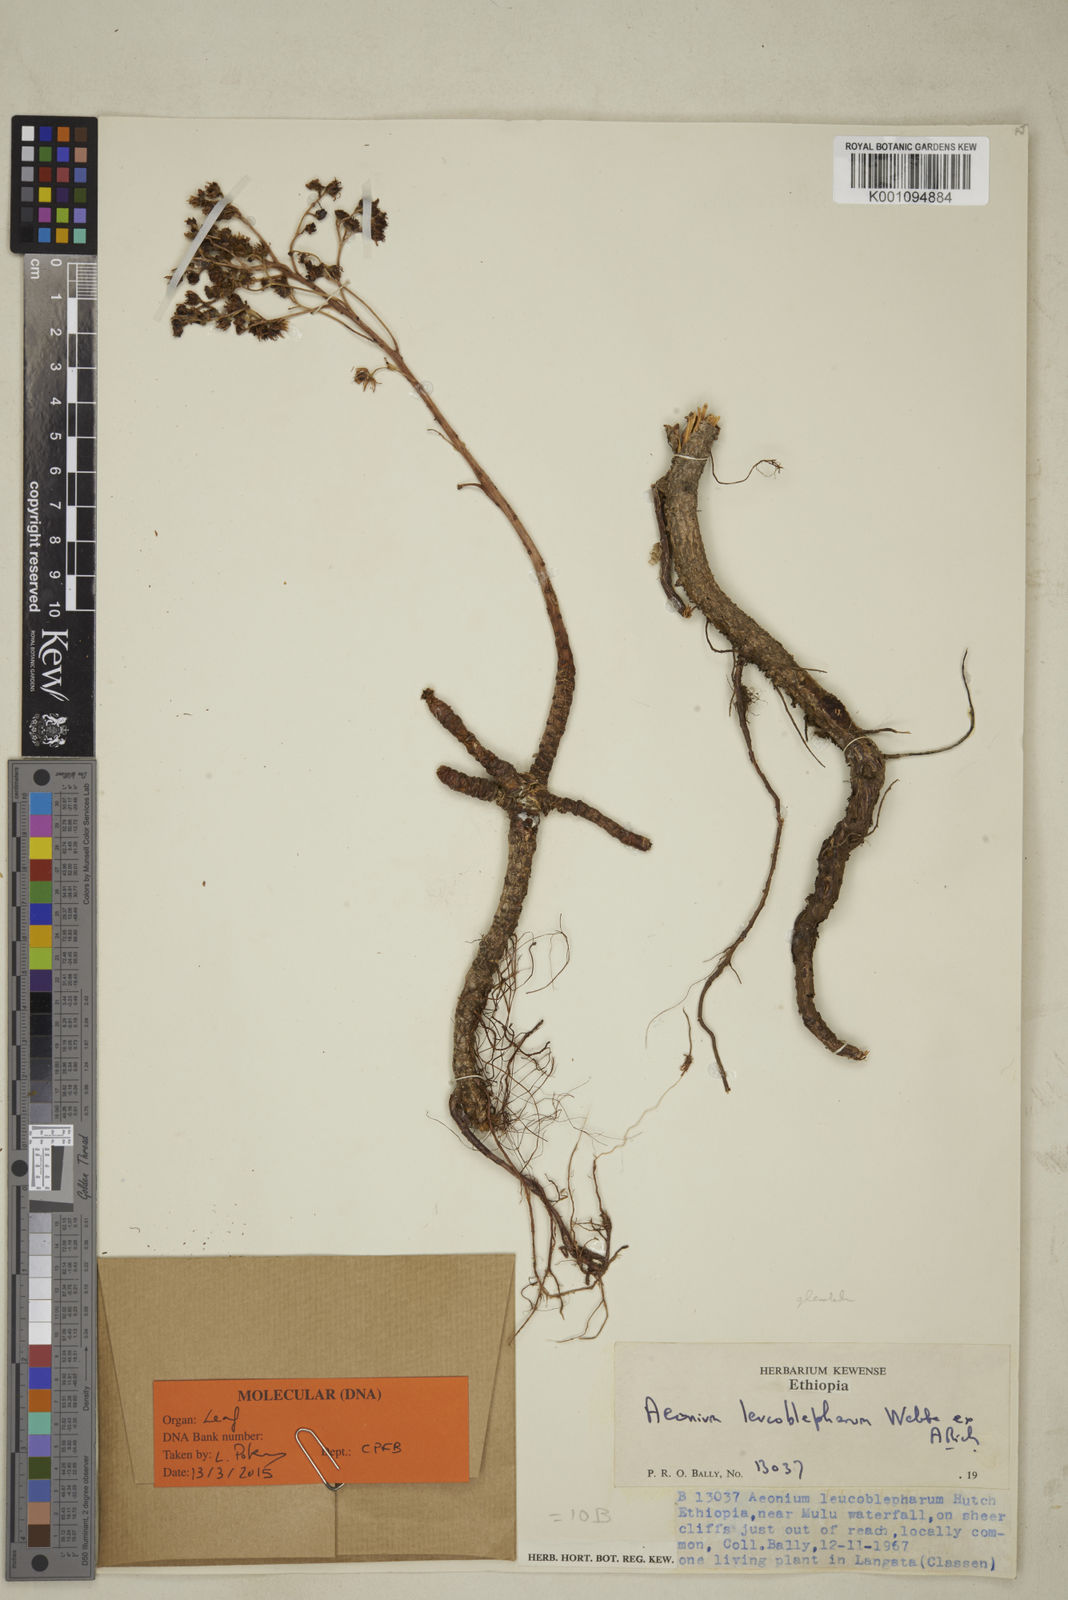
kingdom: Plantae
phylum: Tracheophyta
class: Magnoliopsida
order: Saxifragales
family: Crassulaceae
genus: Aeonium
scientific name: Aeonium leucoblepharum
